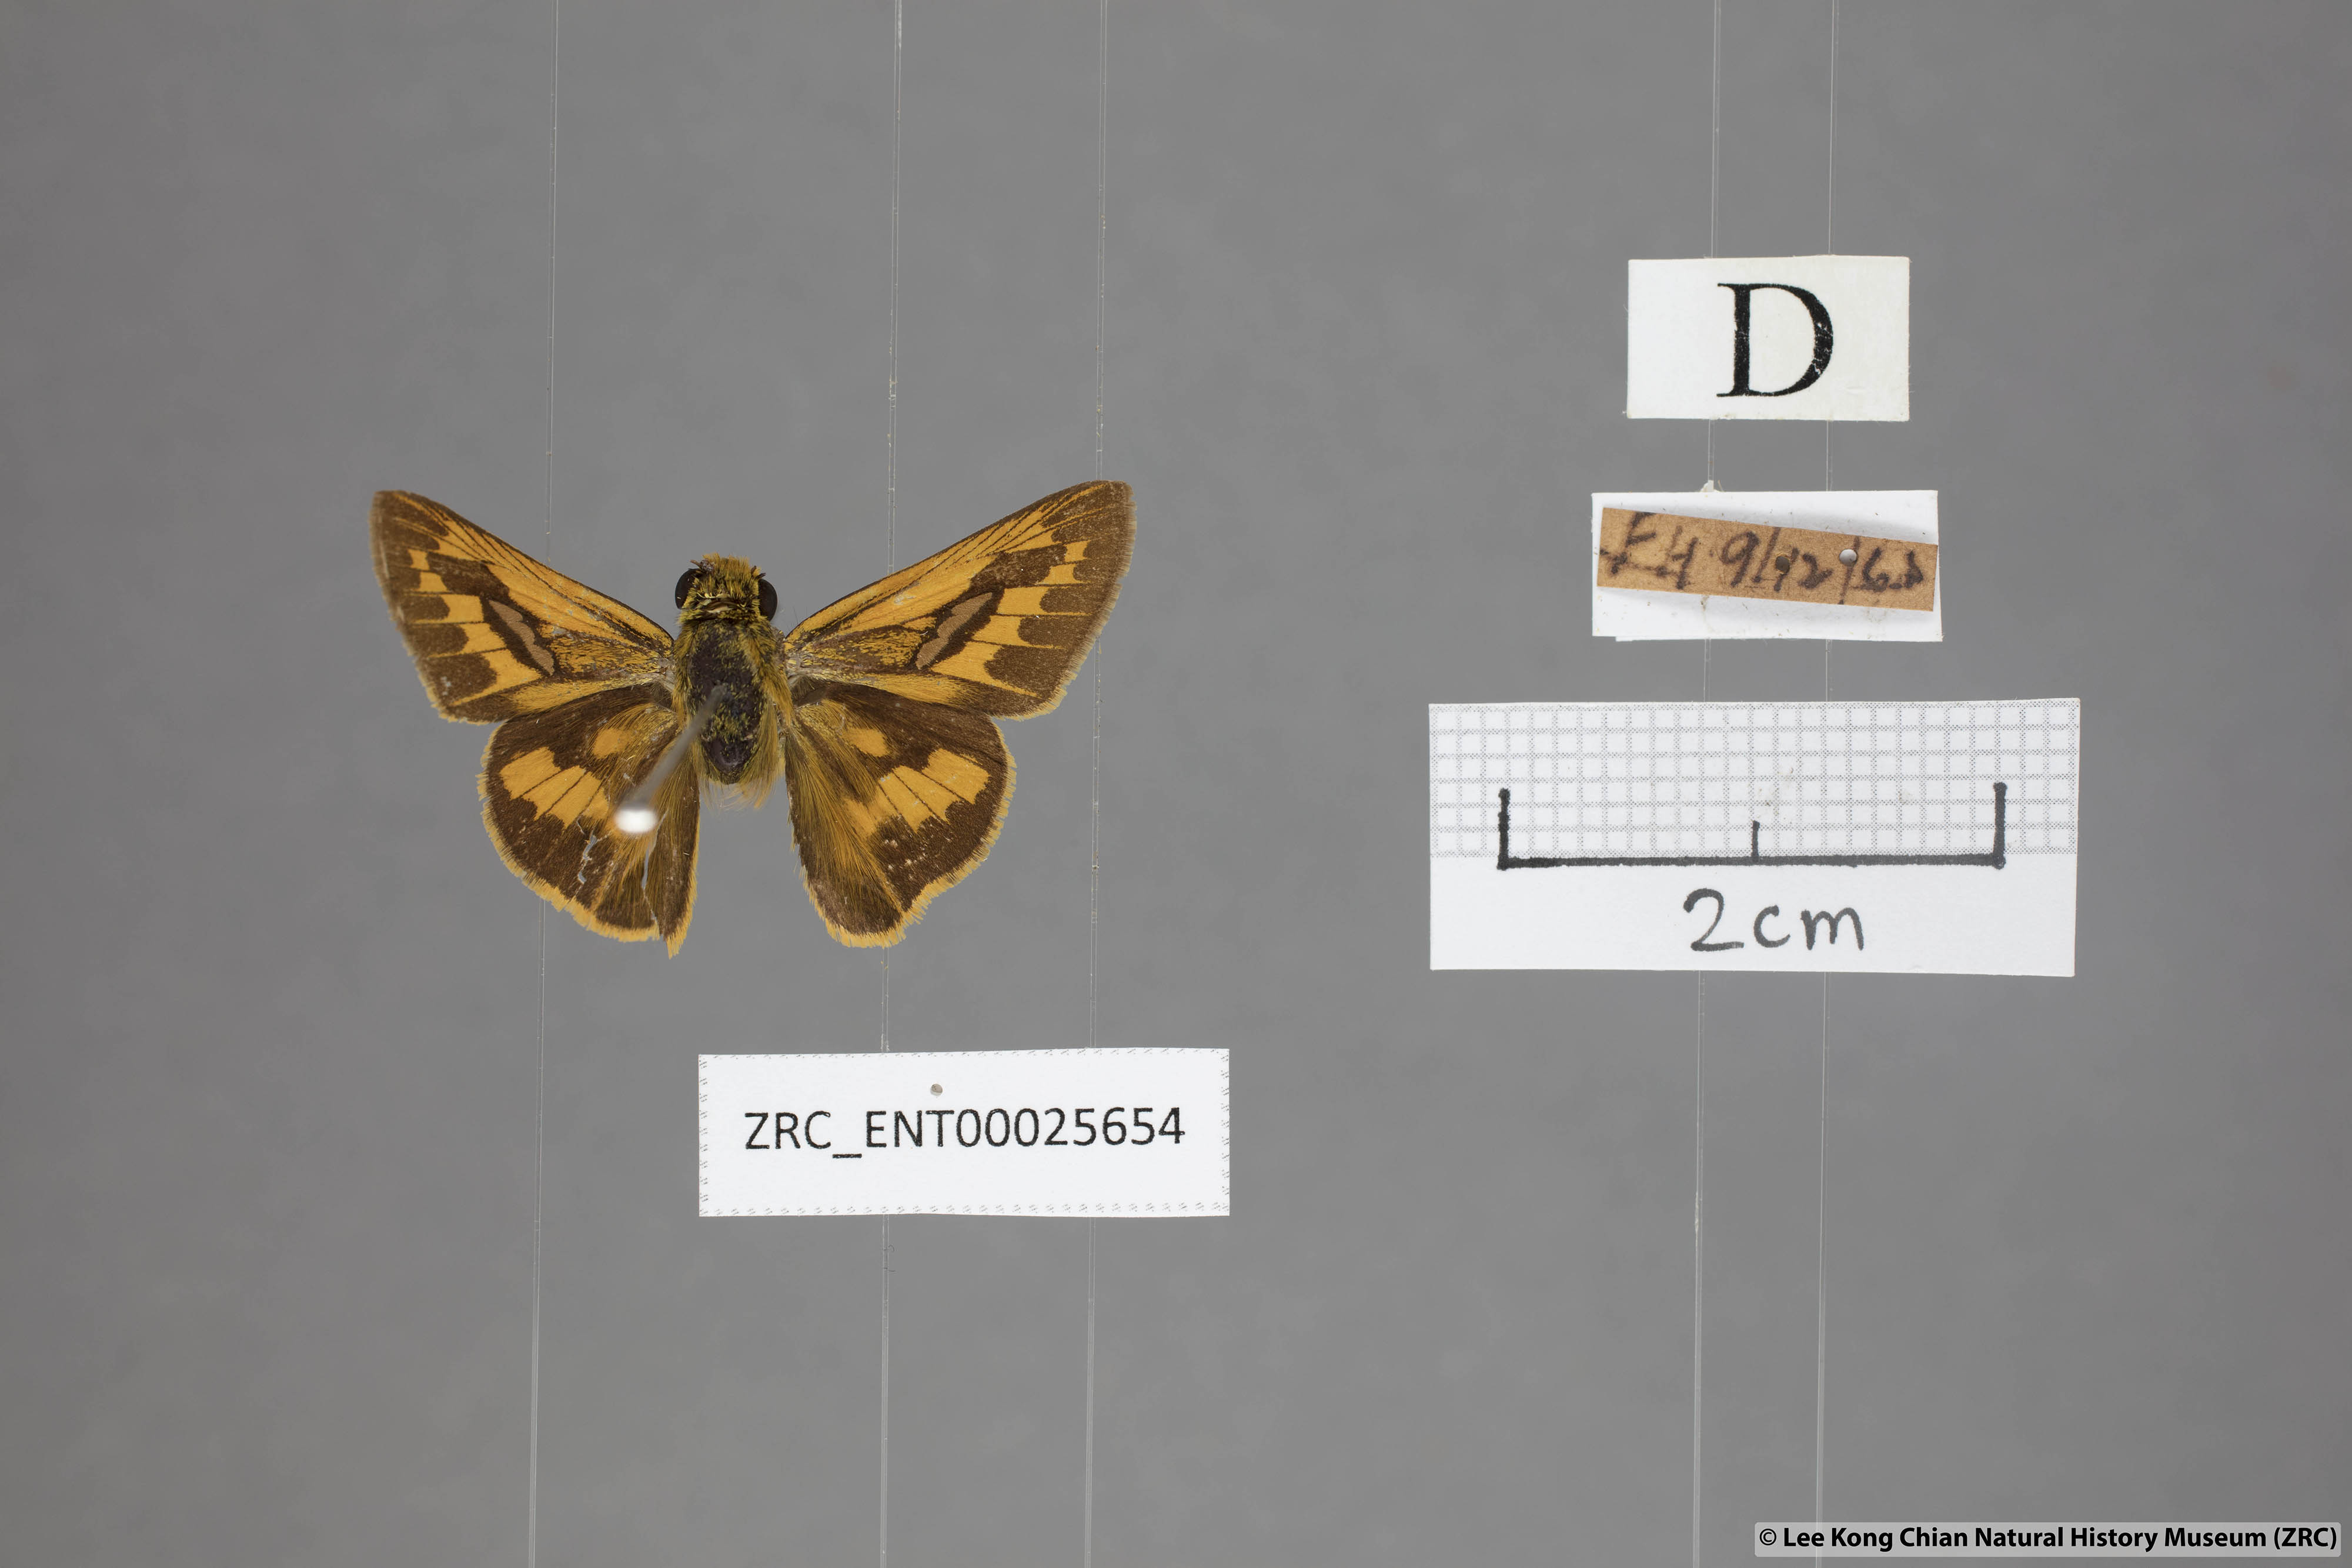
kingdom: Animalia
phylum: Arthropoda
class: Insecta
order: Lepidoptera
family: Hesperiidae
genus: Telicota
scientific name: Telicota colon
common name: Pale palm dart
